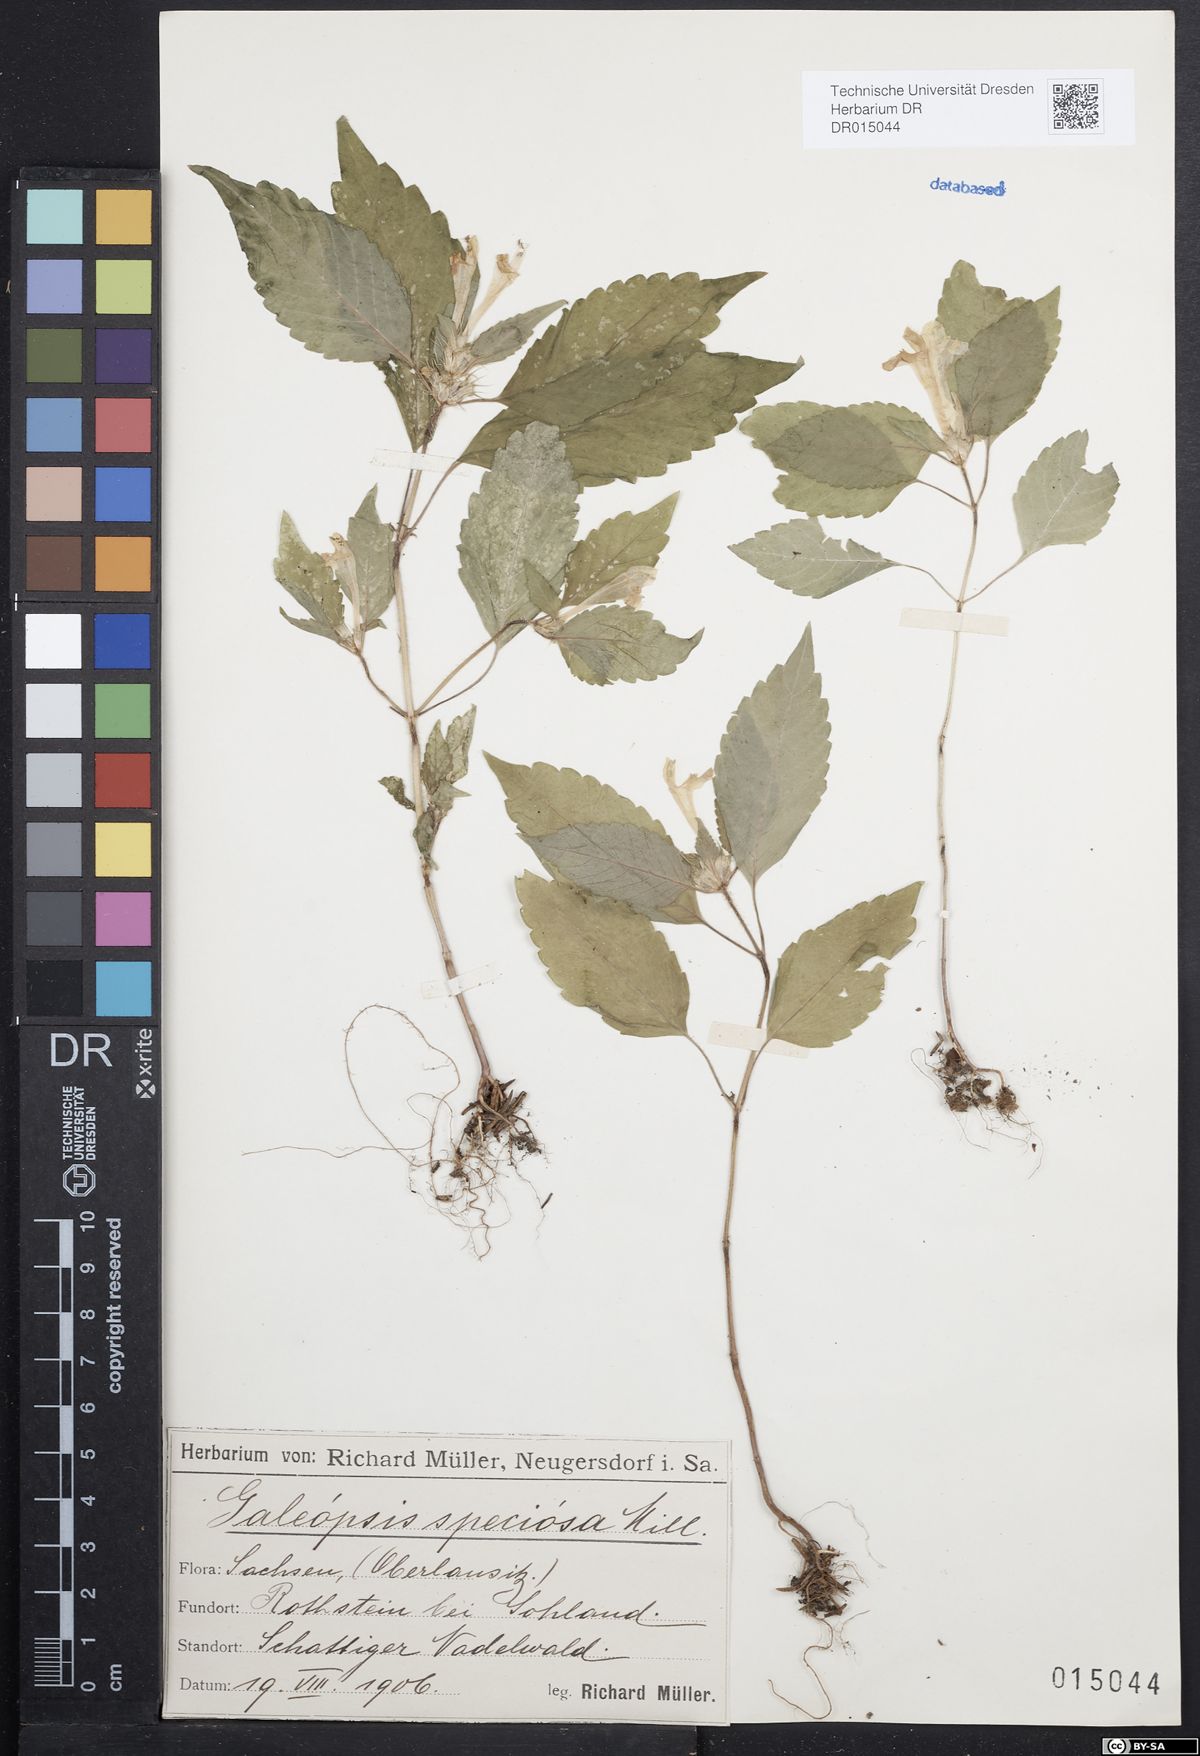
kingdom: Plantae
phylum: Tracheophyta
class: Magnoliopsida
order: Lamiales
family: Lamiaceae
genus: Galeopsis
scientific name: Galeopsis speciosa
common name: Large-flowered hemp-nettle
